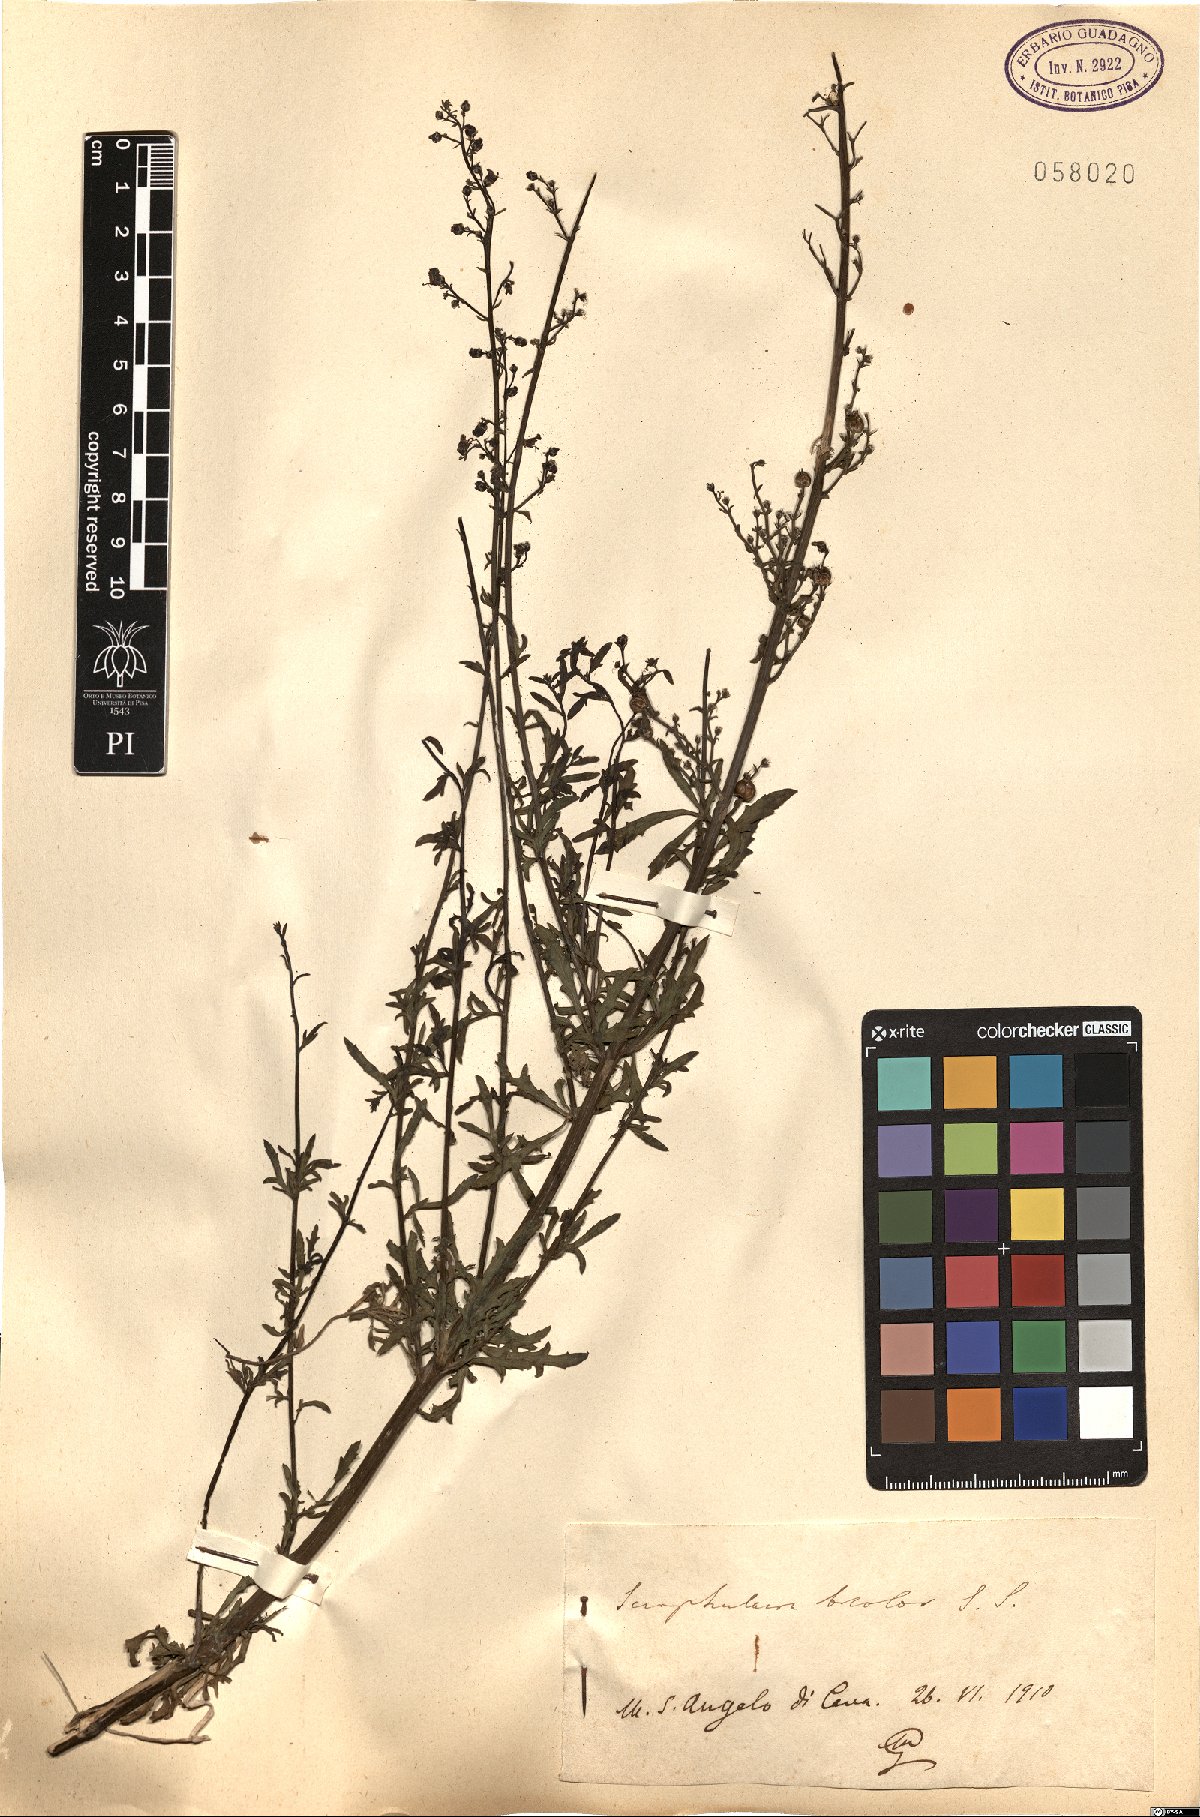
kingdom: Plantae
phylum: Tracheophyta
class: Magnoliopsida
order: Lamiales
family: Scrophulariaceae
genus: Scrophularia
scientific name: Scrophularia canina
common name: French figwort
